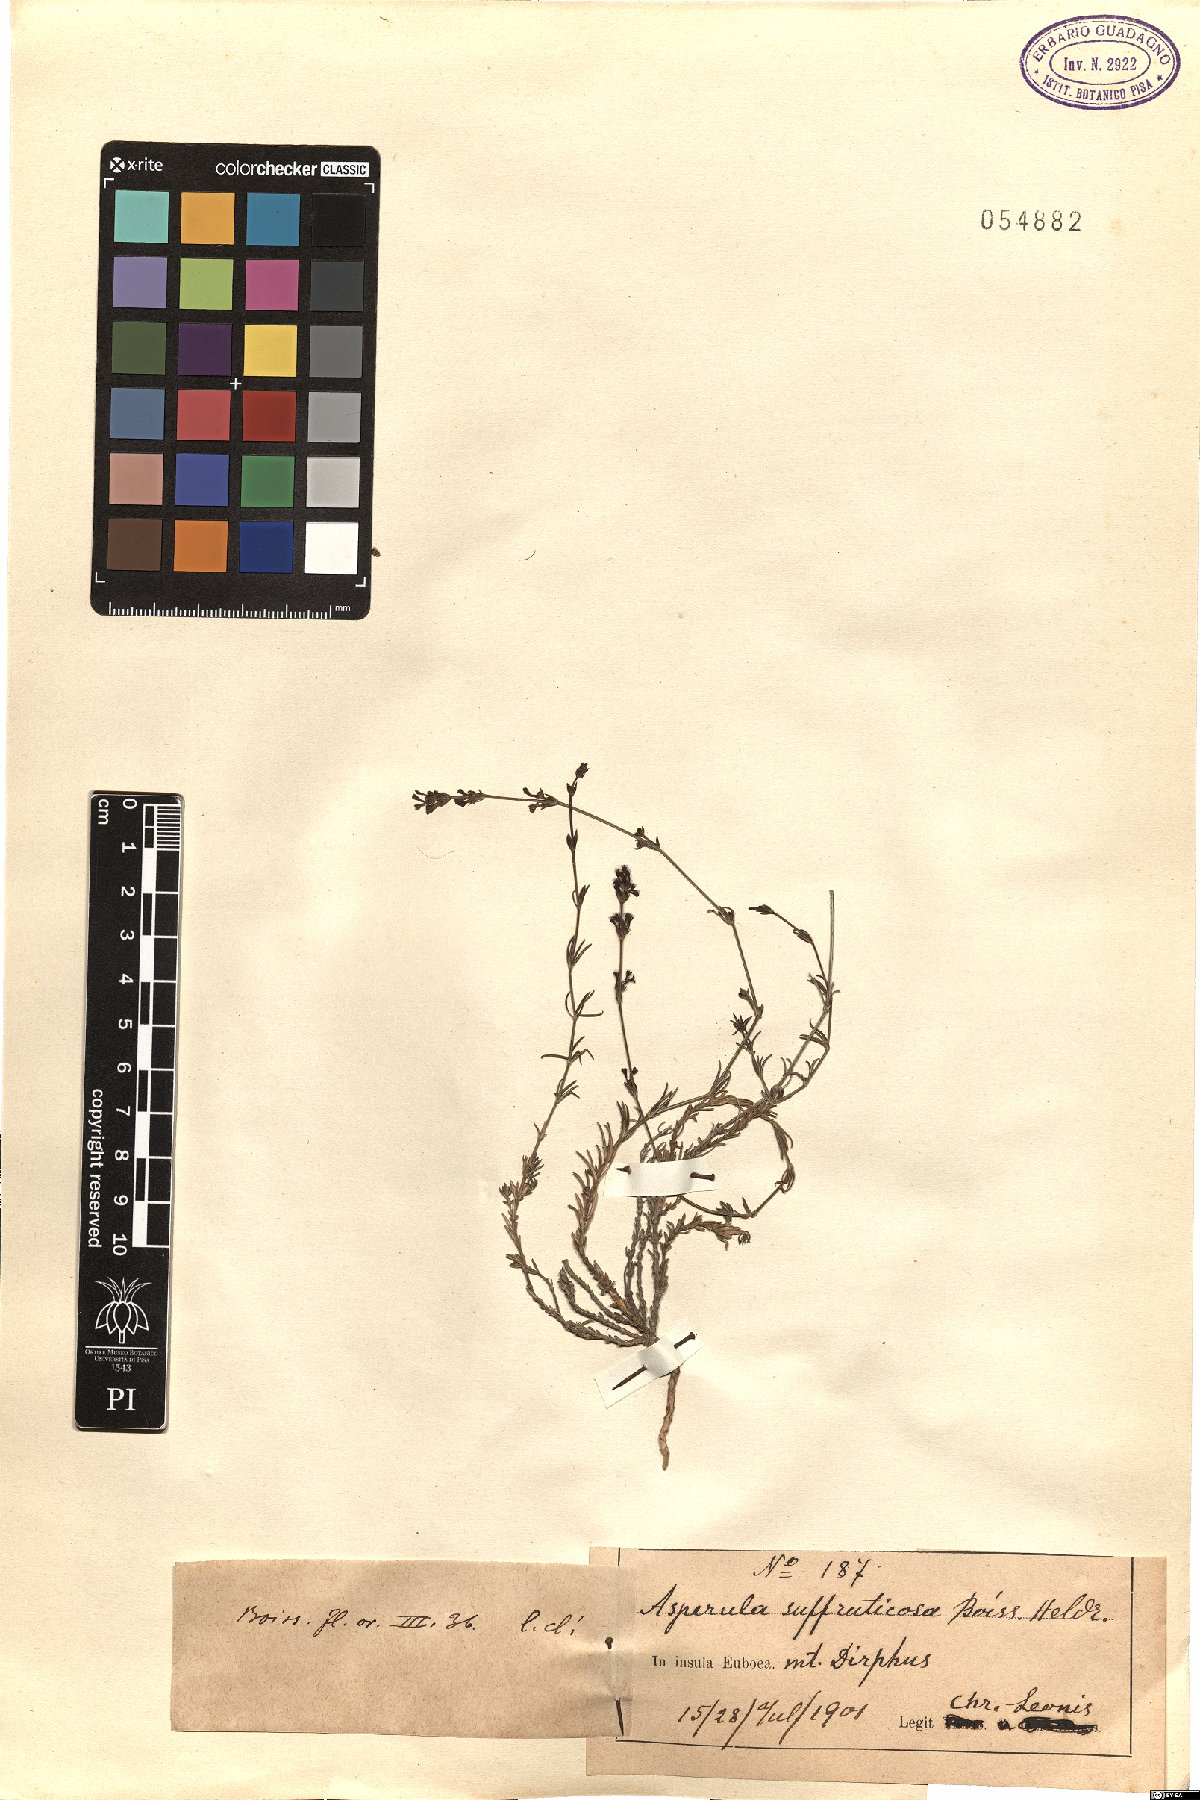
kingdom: Plantae
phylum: Tracheophyta
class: Magnoliopsida
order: Gentianales
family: Rubiaceae
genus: Cynanchica
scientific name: Cynanchica suffruticosa
